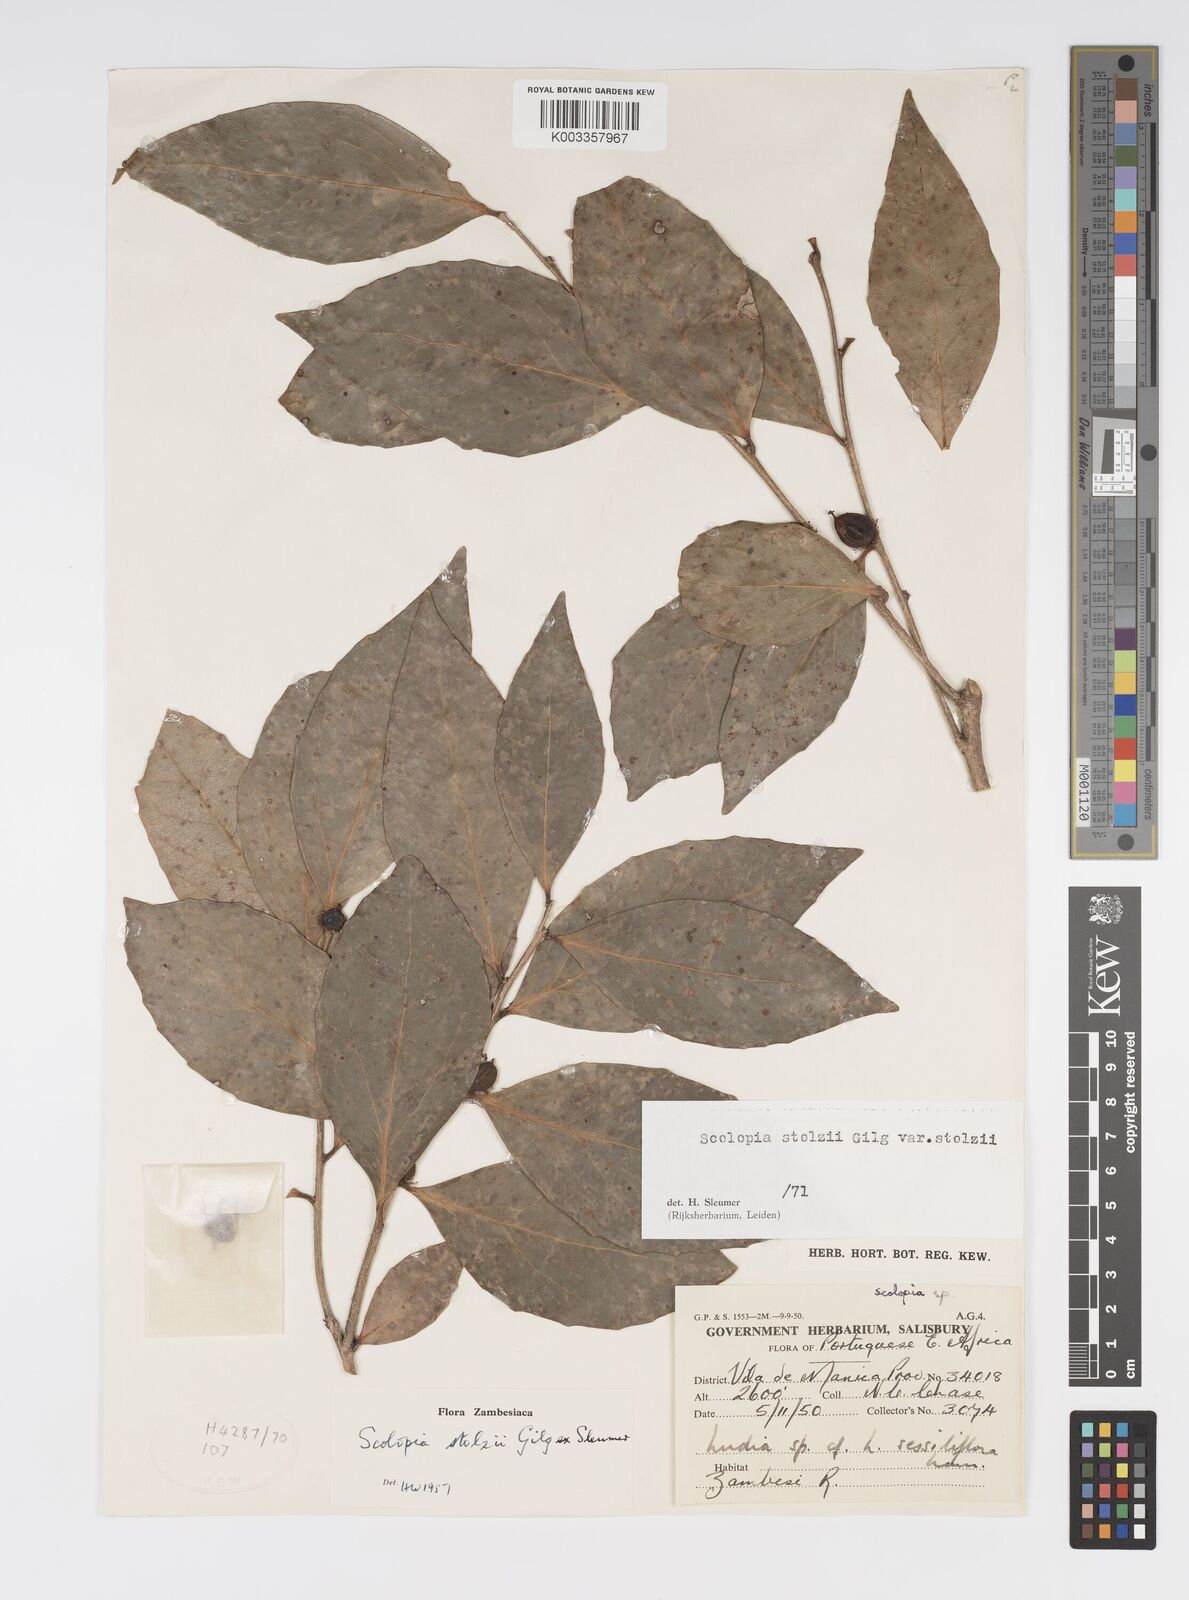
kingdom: Plantae
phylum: Tracheophyta
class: Magnoliopsida
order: Malpighiales
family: Salicaceae
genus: Scolopia
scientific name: Scolopia stolzii
